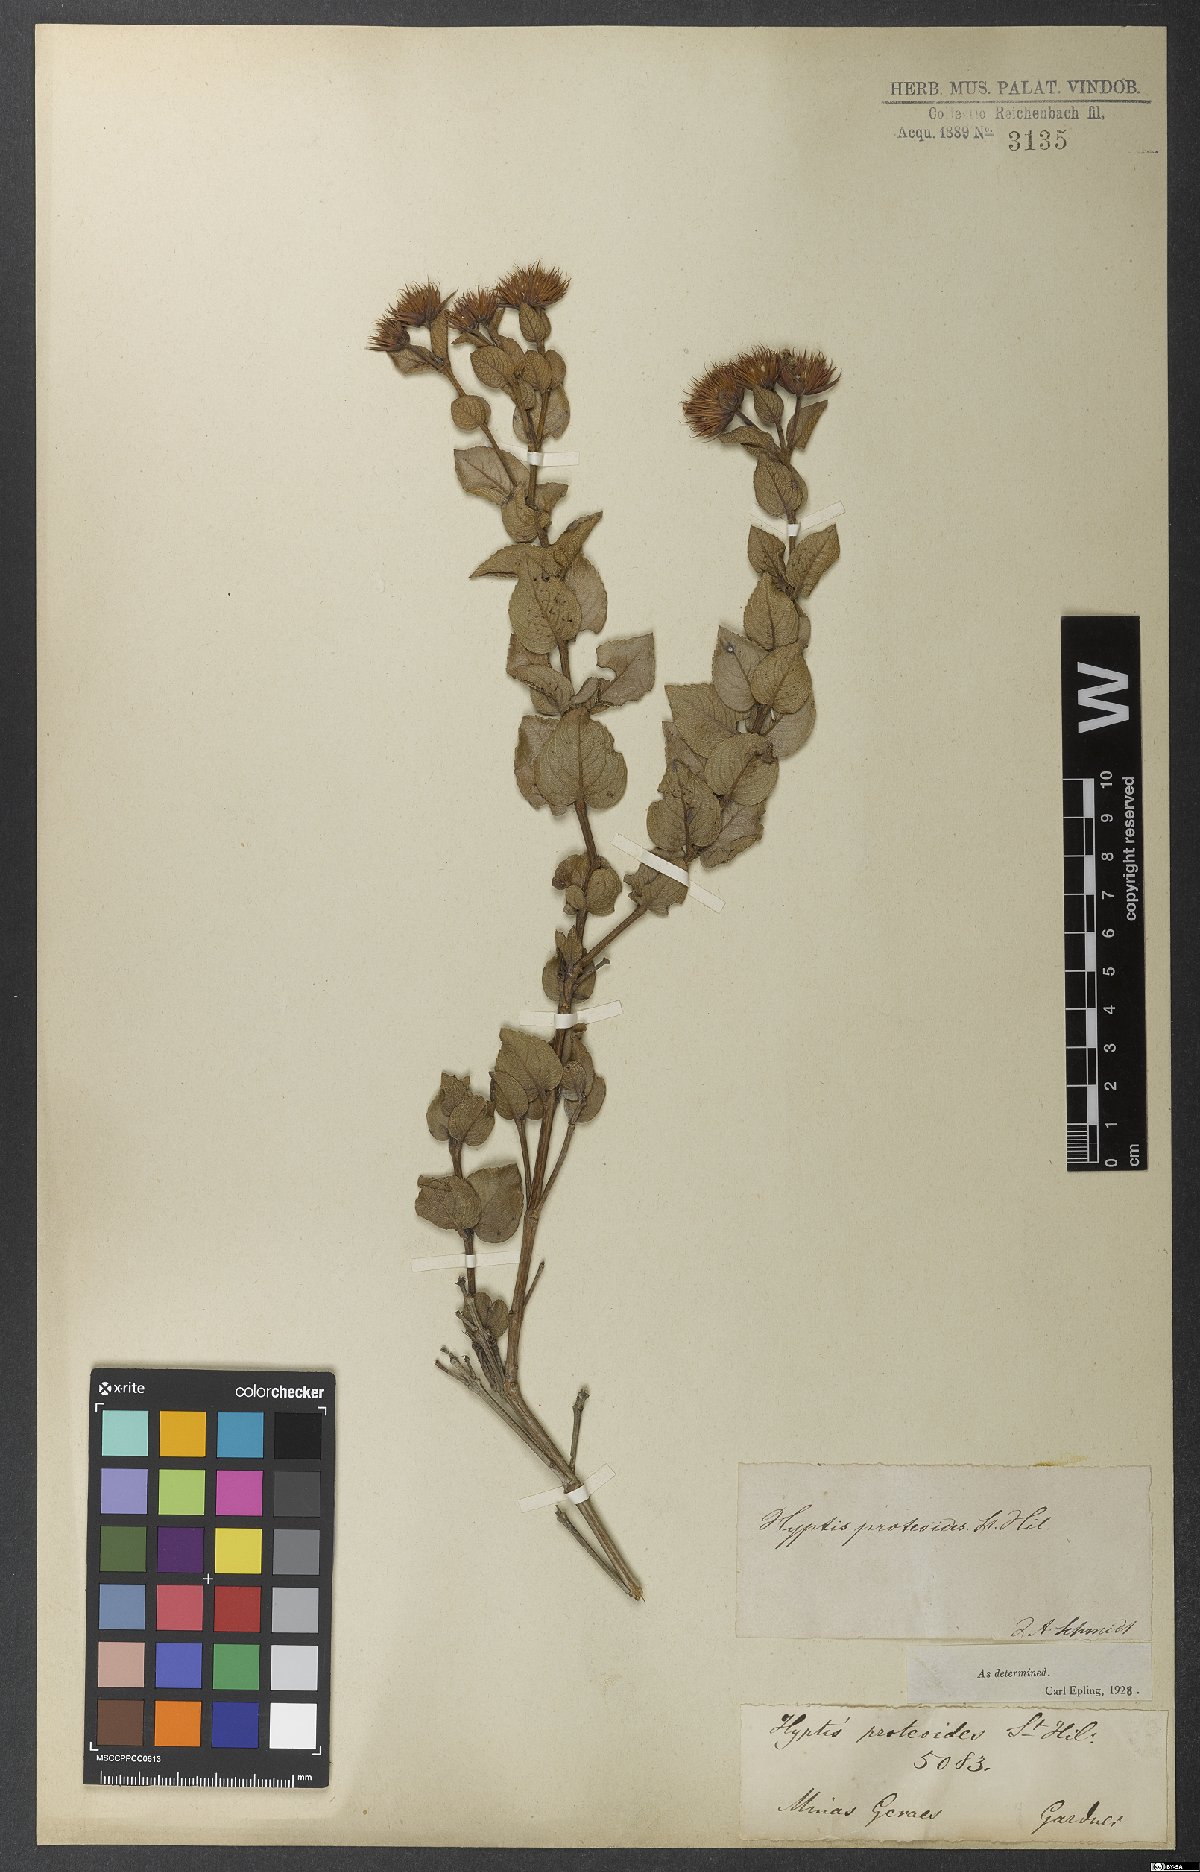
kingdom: Plantae
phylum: Tracheophyta
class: Magnoliopsida
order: Lamiales
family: Lamiaceae
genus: Hyptis
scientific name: Hyptis proteoides
